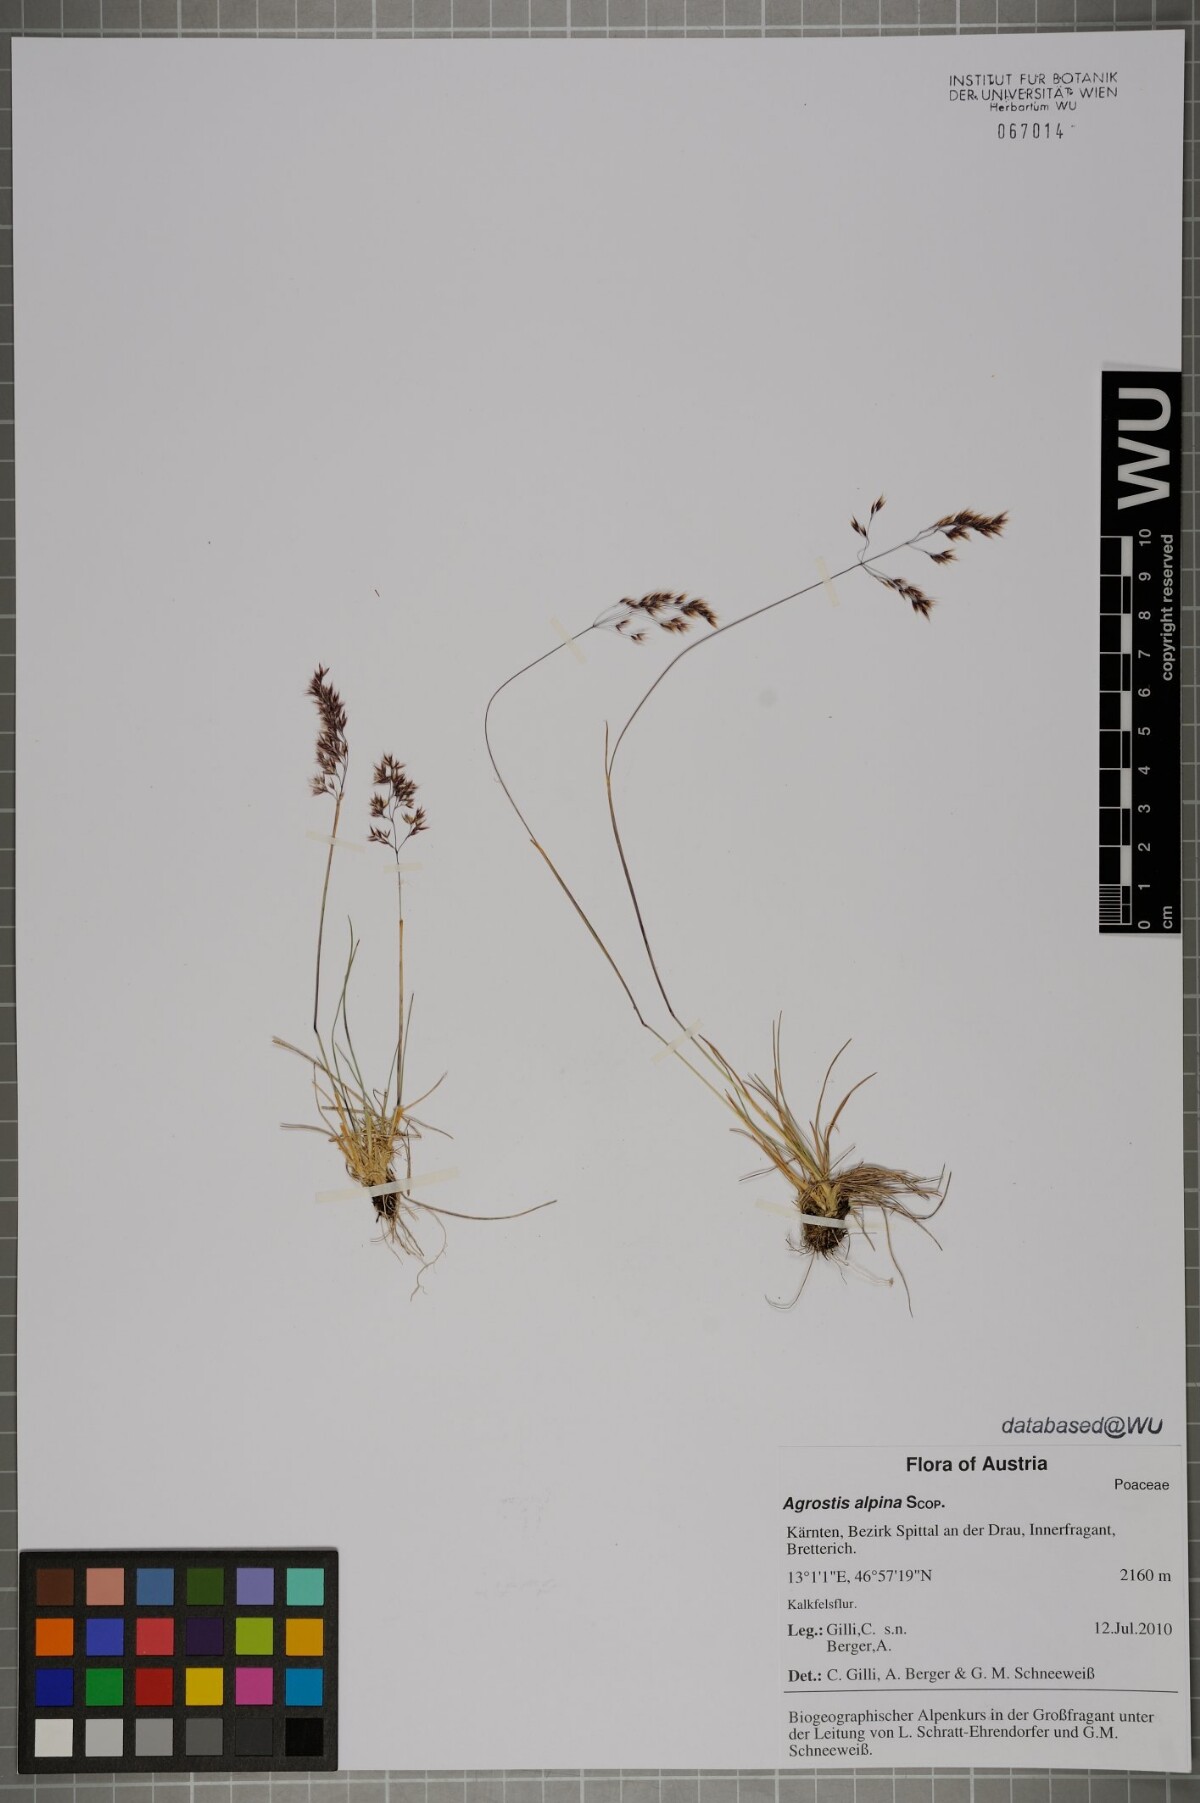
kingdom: Plantae
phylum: Tracheophyta
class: Liliopsida
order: Poales
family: Poaceae
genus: Alpagrostis
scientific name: Alpagrostis alpina
